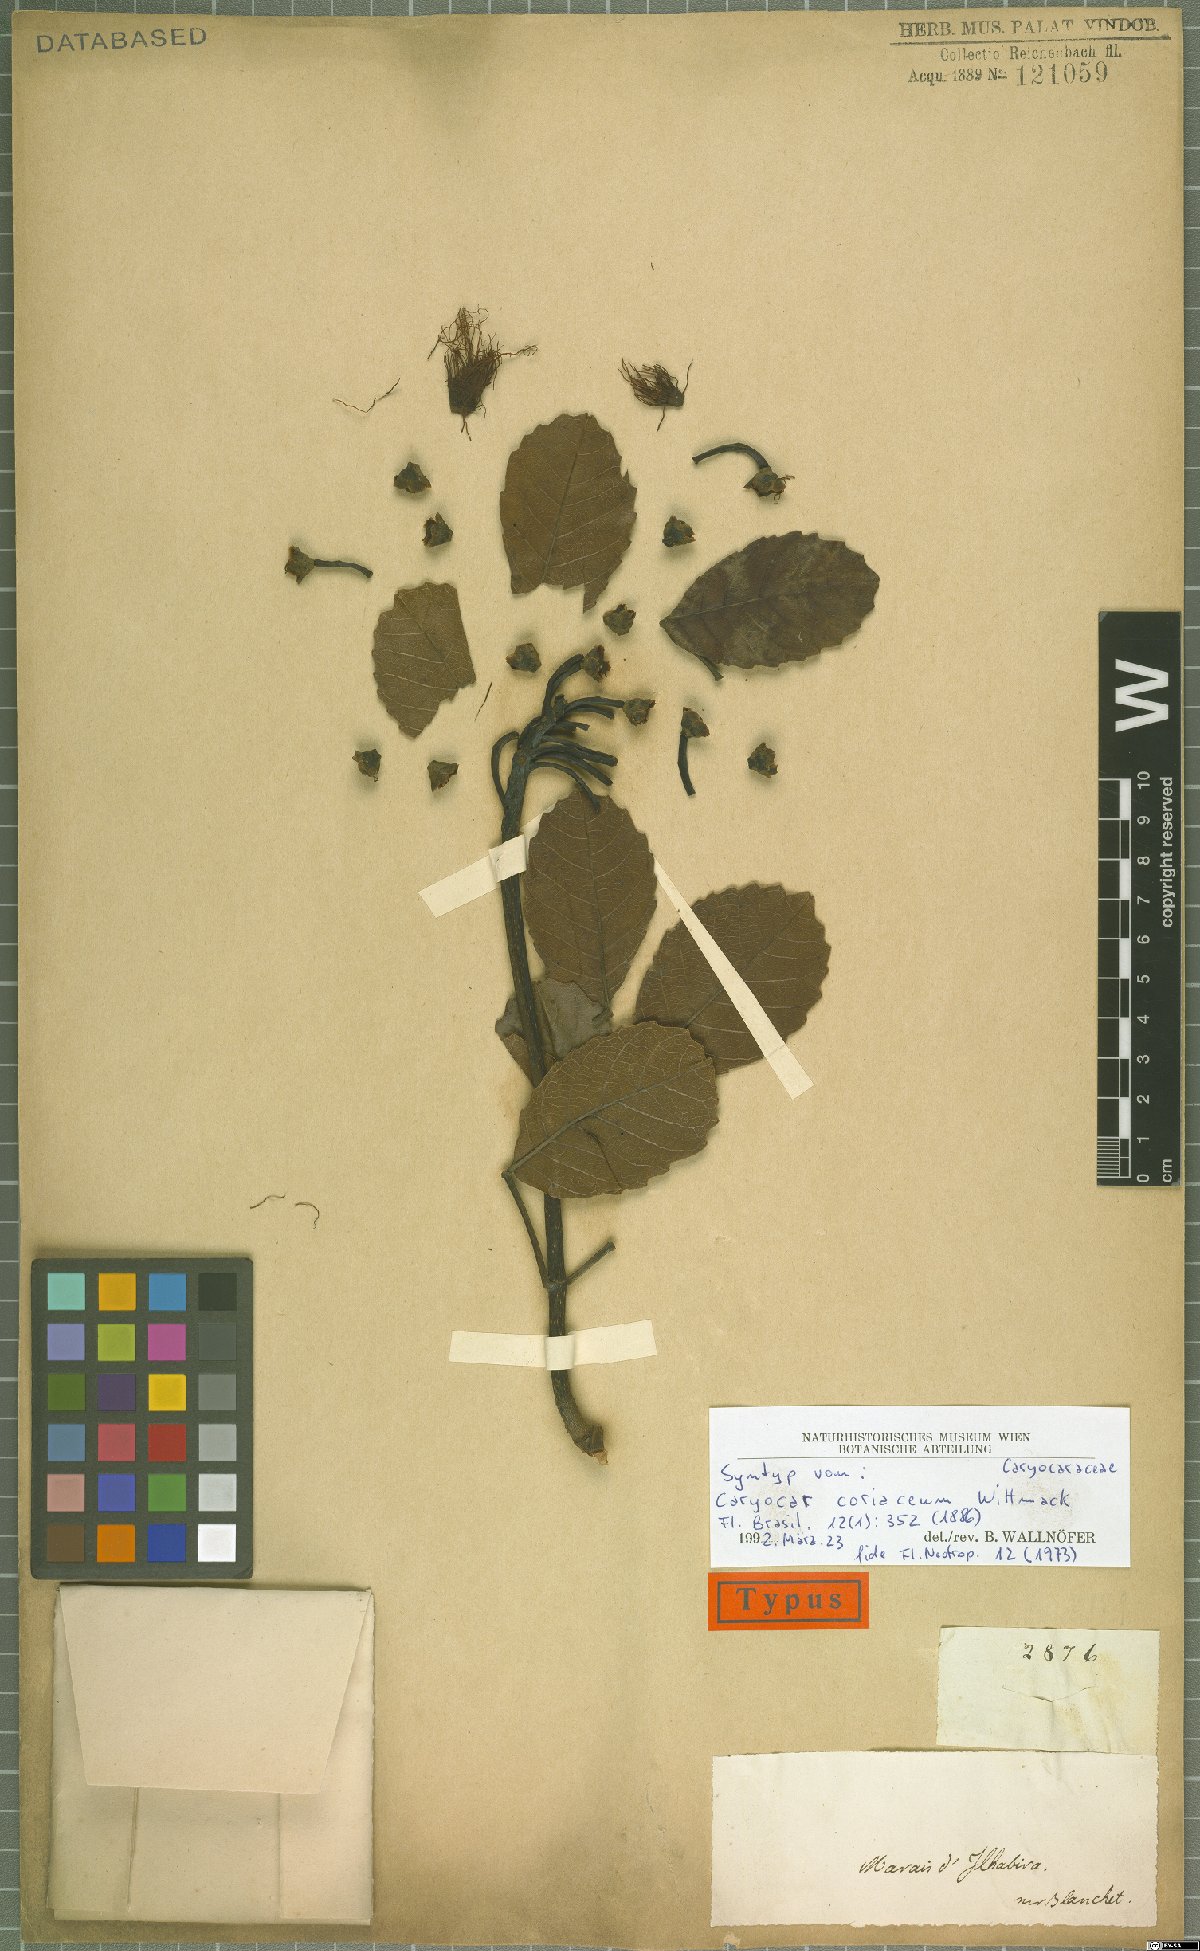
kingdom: Plantae
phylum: Tracheophyta
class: Magnoliopsida
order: Malpighiales
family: Caryocaraceae
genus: Caryocar
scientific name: Caryocar coriaceum
